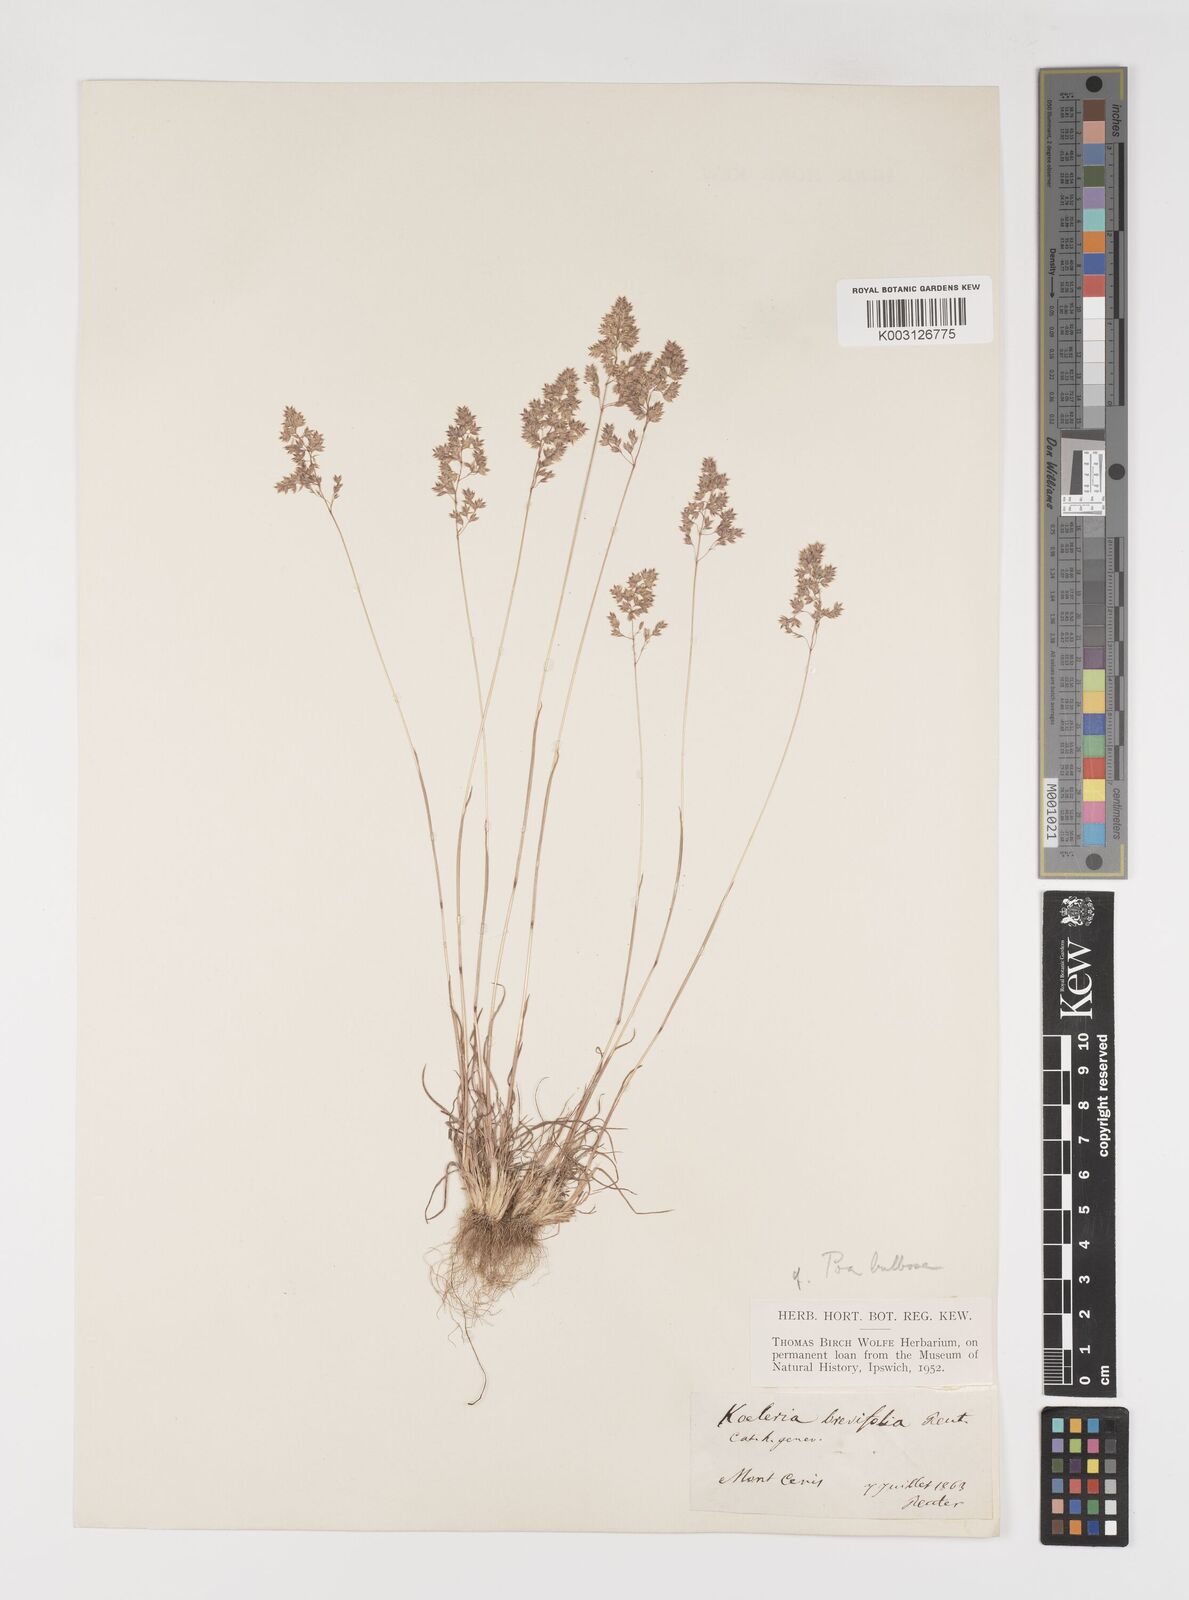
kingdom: Plantae
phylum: Tracheophyta
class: Liliopsida
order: Poales
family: Poaceae
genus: Poa
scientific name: Poa bulbosa
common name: Bulbous bluegrass
